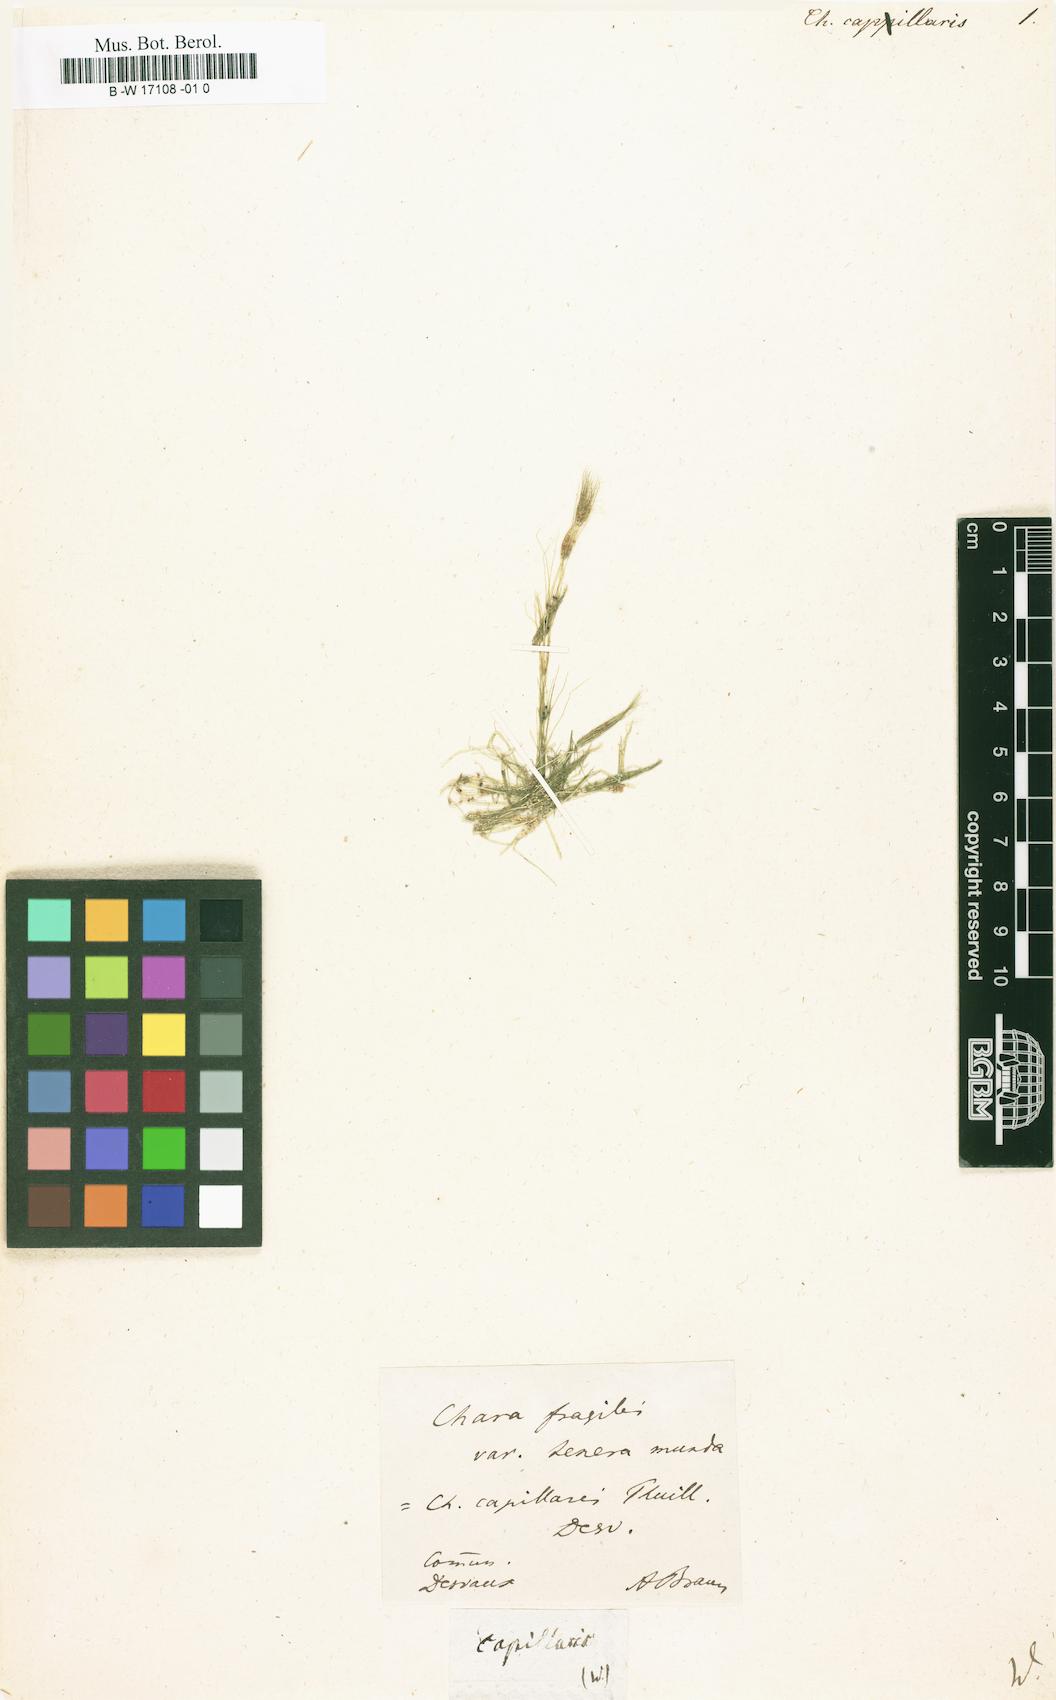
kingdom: Plantae
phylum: Charophyta
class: Charophyceae
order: Charales
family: Characeae
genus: Nitella
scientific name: Nitella capillaris
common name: Slimy-fruited stonewort
